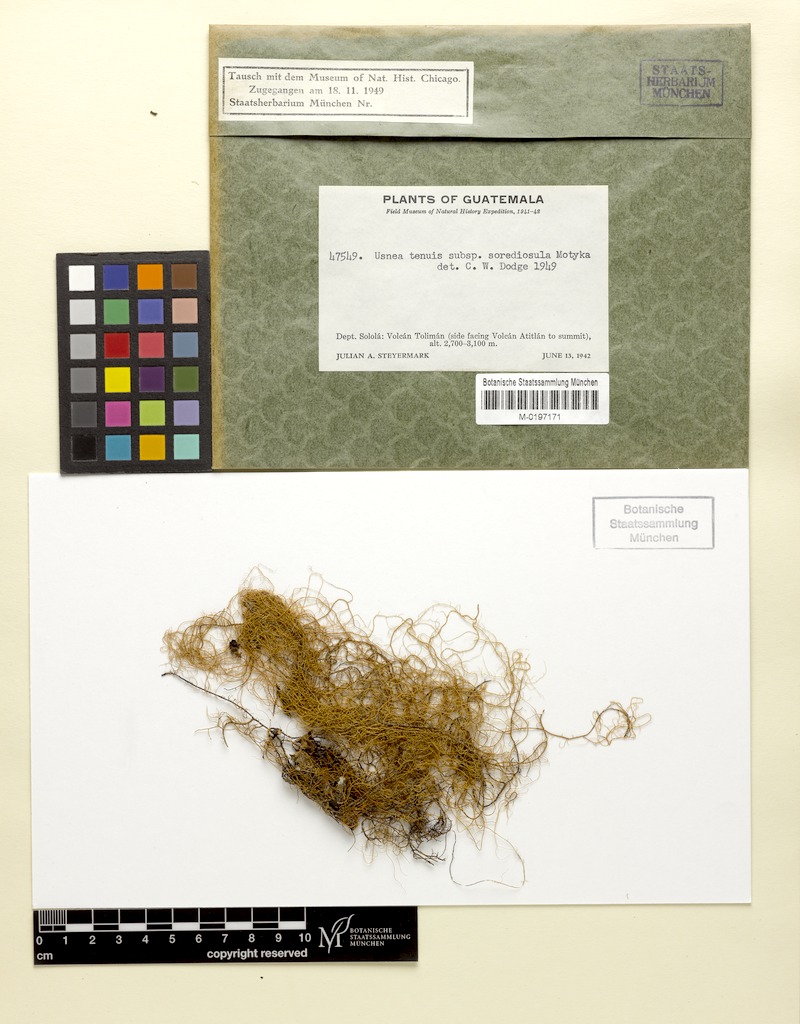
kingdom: Fungi
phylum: Ascomycota
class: Lecanoromycetes
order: Lecanorales
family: Parmeliaceae
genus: Usnea
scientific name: Usnea sorediosula
